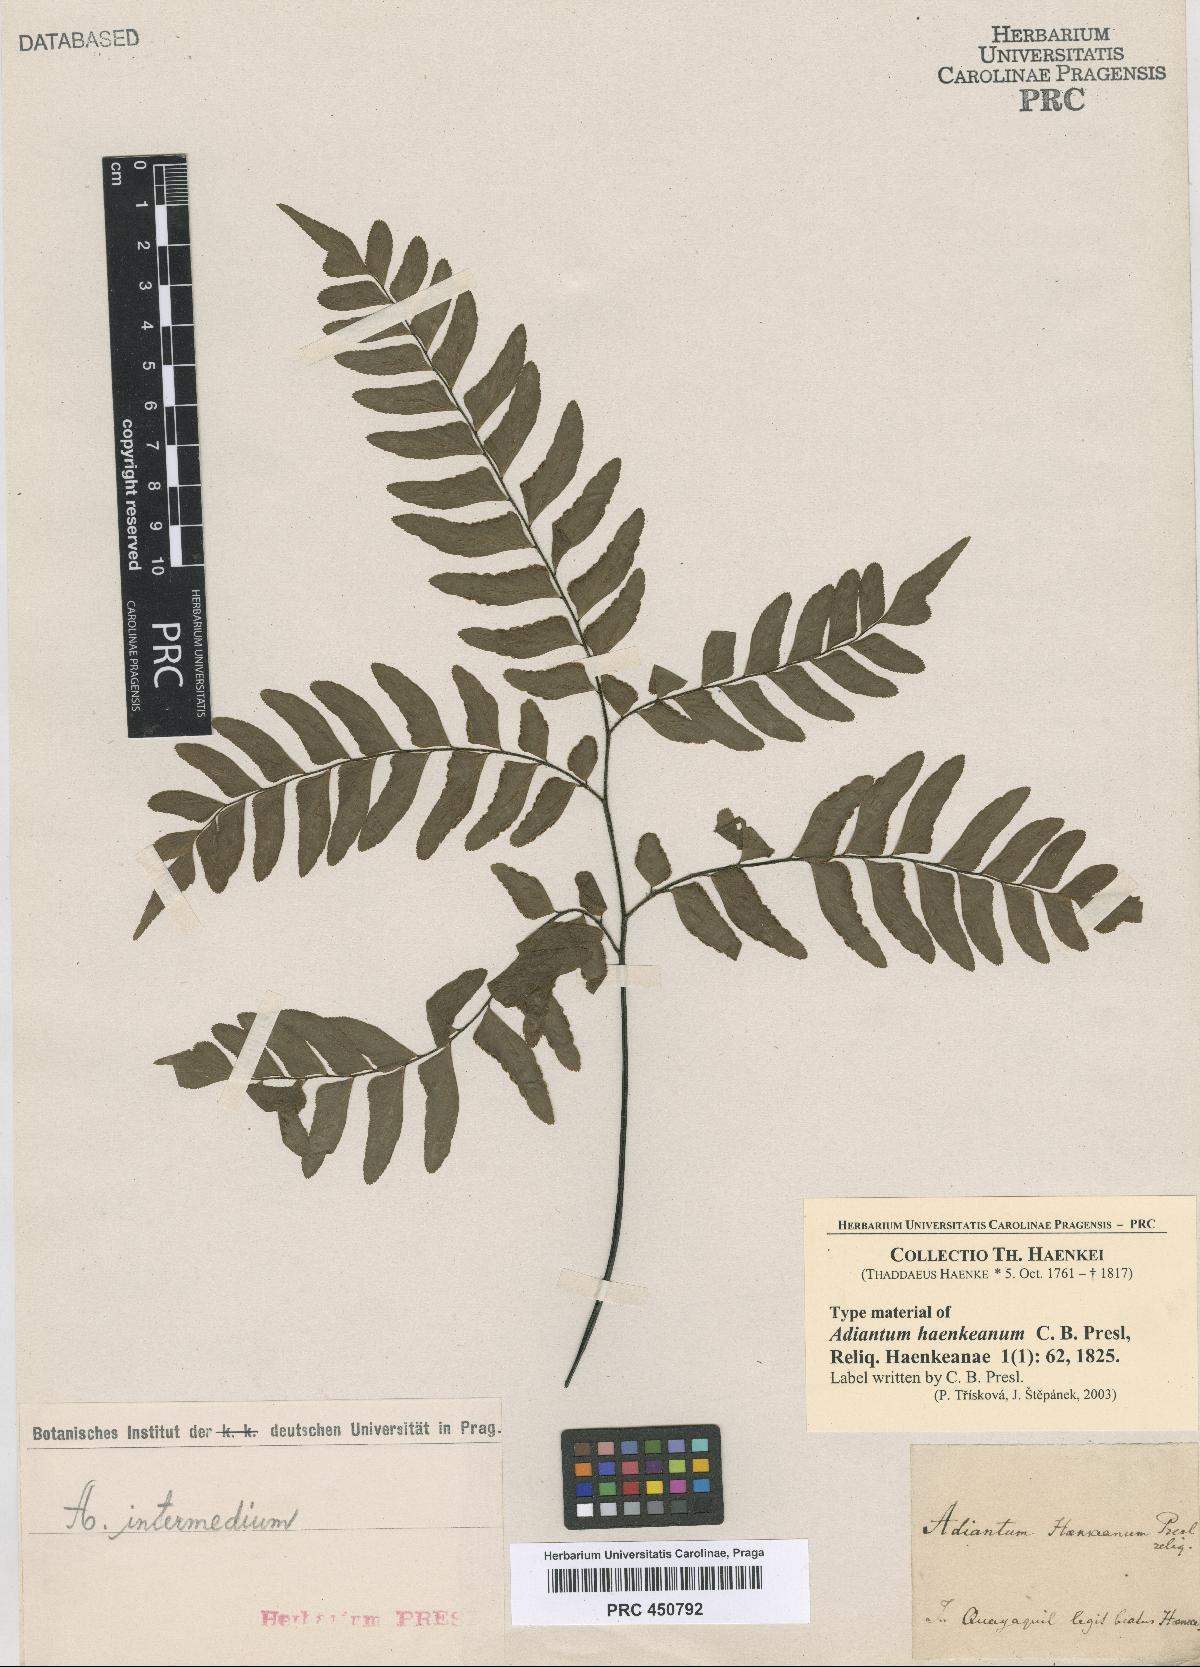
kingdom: Plantae
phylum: Tracheophyta
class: Polypodiopsida
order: Polypodiales
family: Pteridaceae
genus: Adiantum
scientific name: Adiantum intermedium
